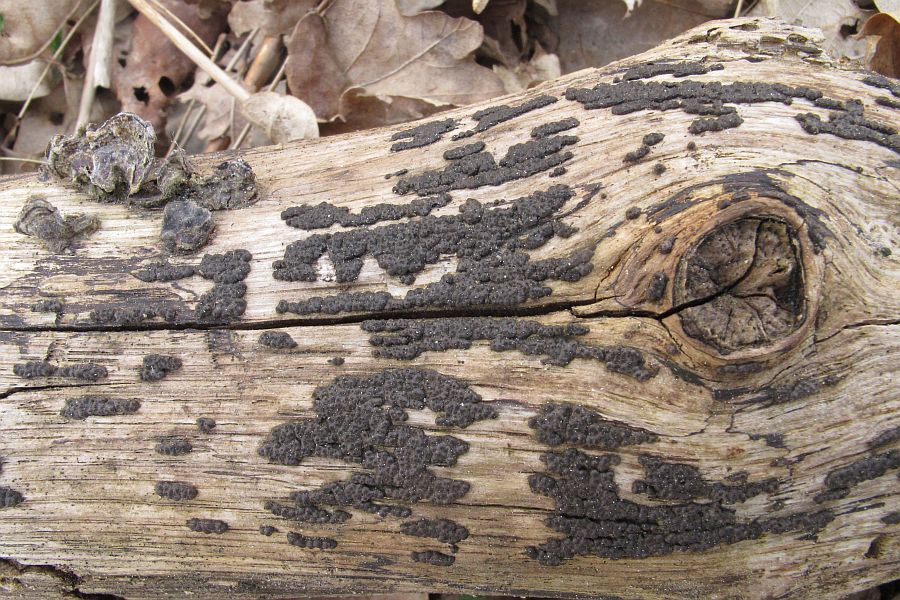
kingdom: Fungi
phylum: Ascomycota
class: Sordariomycetes
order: Xylariales
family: Xylariaceae
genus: Nemania
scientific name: Nemania serpens
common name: almindelig kuldyne
